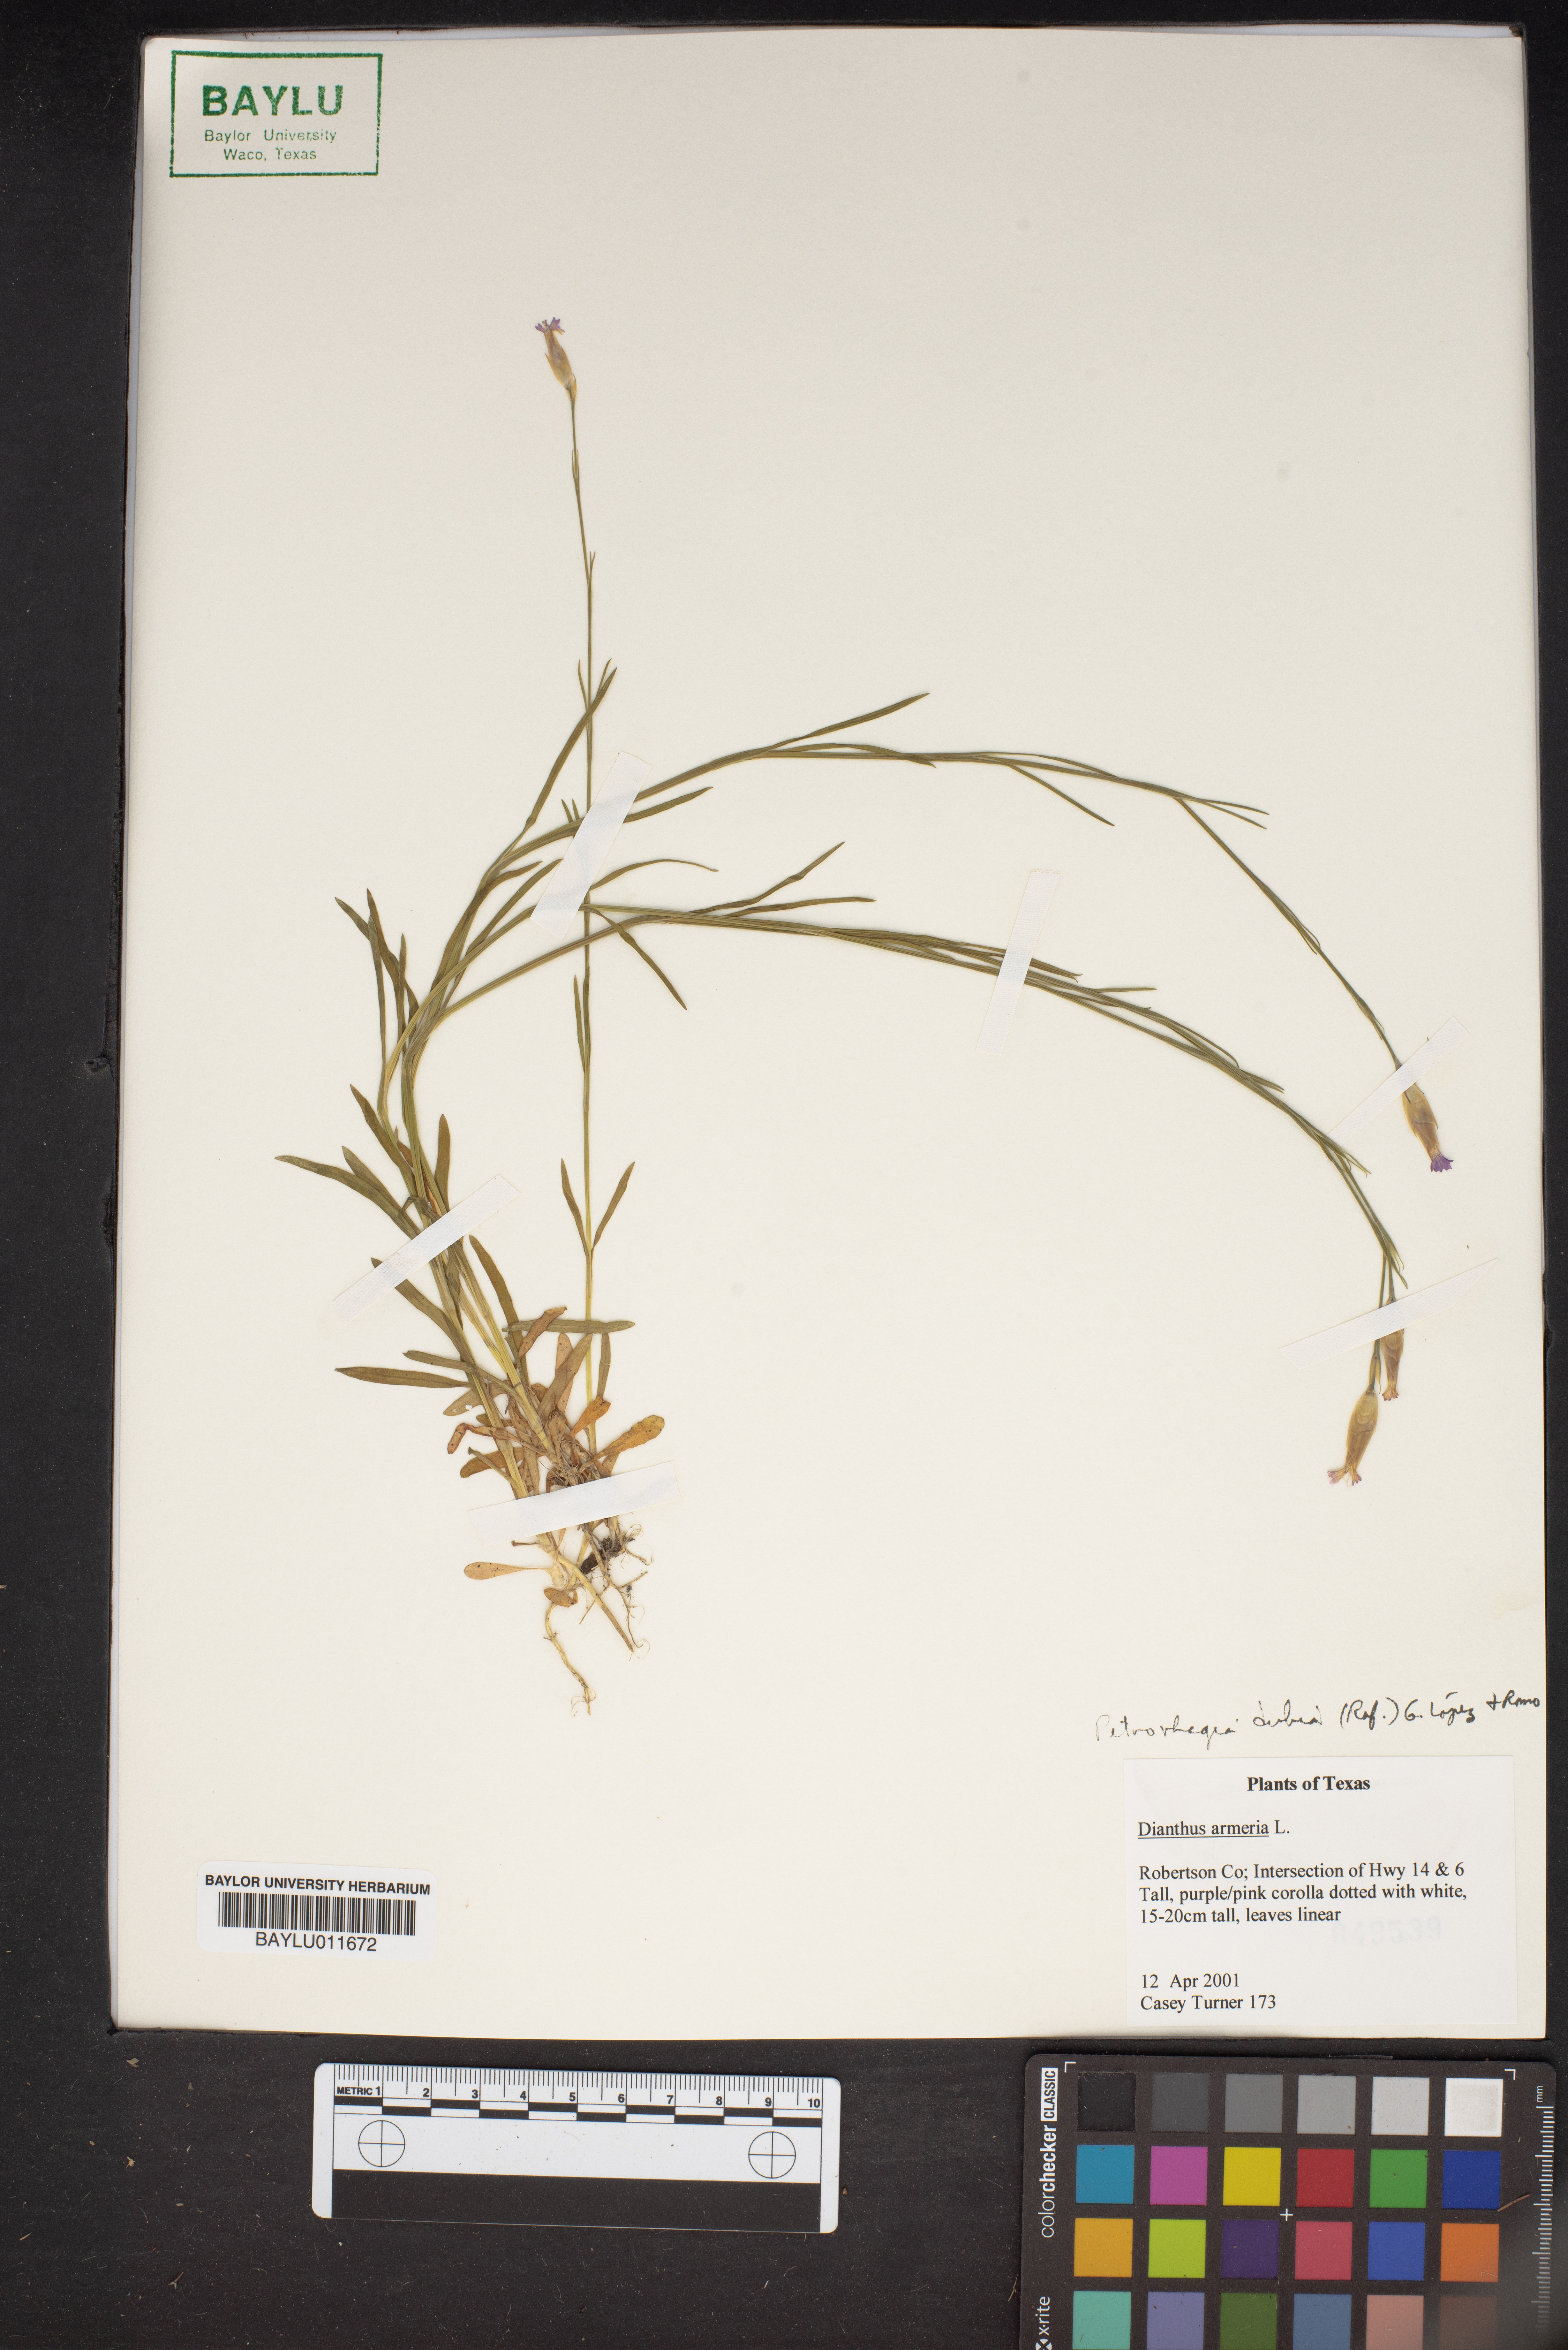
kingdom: Plantae
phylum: Tracheophyta
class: Magnoliopsida
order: Caryophyllales
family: Caryophyllaceae
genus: Dianthus
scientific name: Dianthus armeria
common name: Deptford pink
